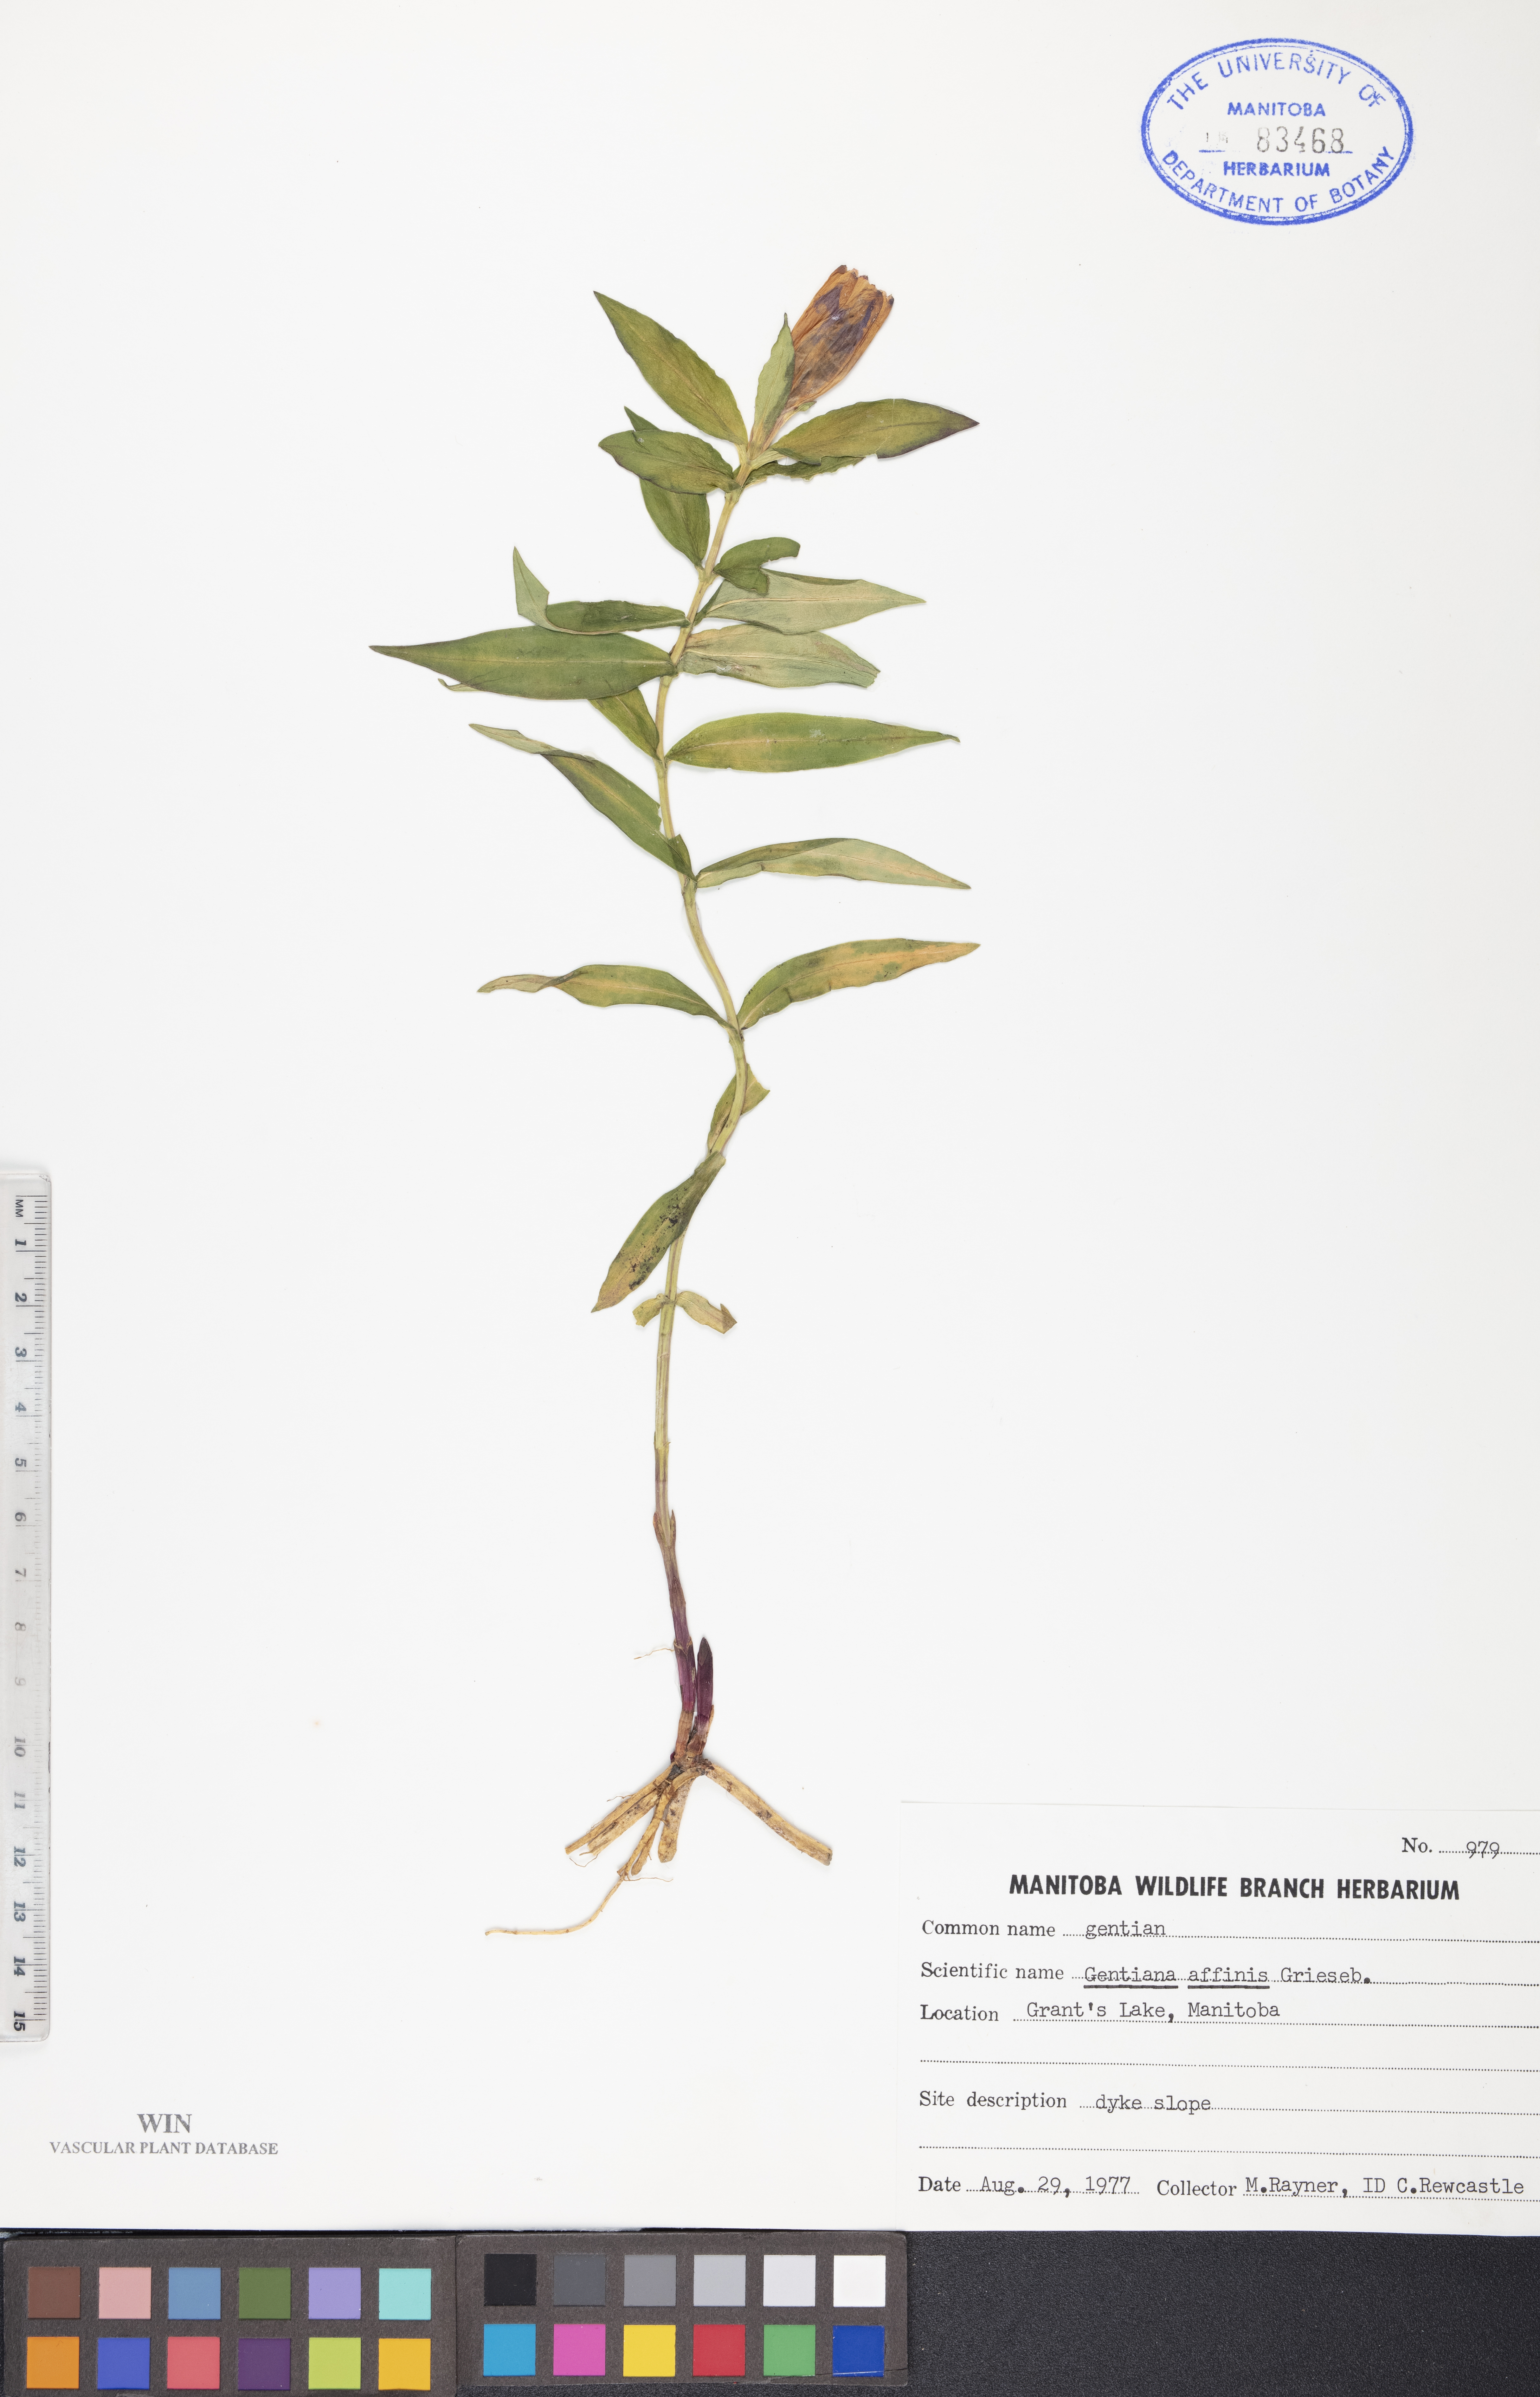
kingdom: Plantae
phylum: Tracheophyta
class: Magnoliopsida
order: Gentianales
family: Gentianaceae
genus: Gentiana
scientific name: Gentiana affinis
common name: Rocky mountain gentian
